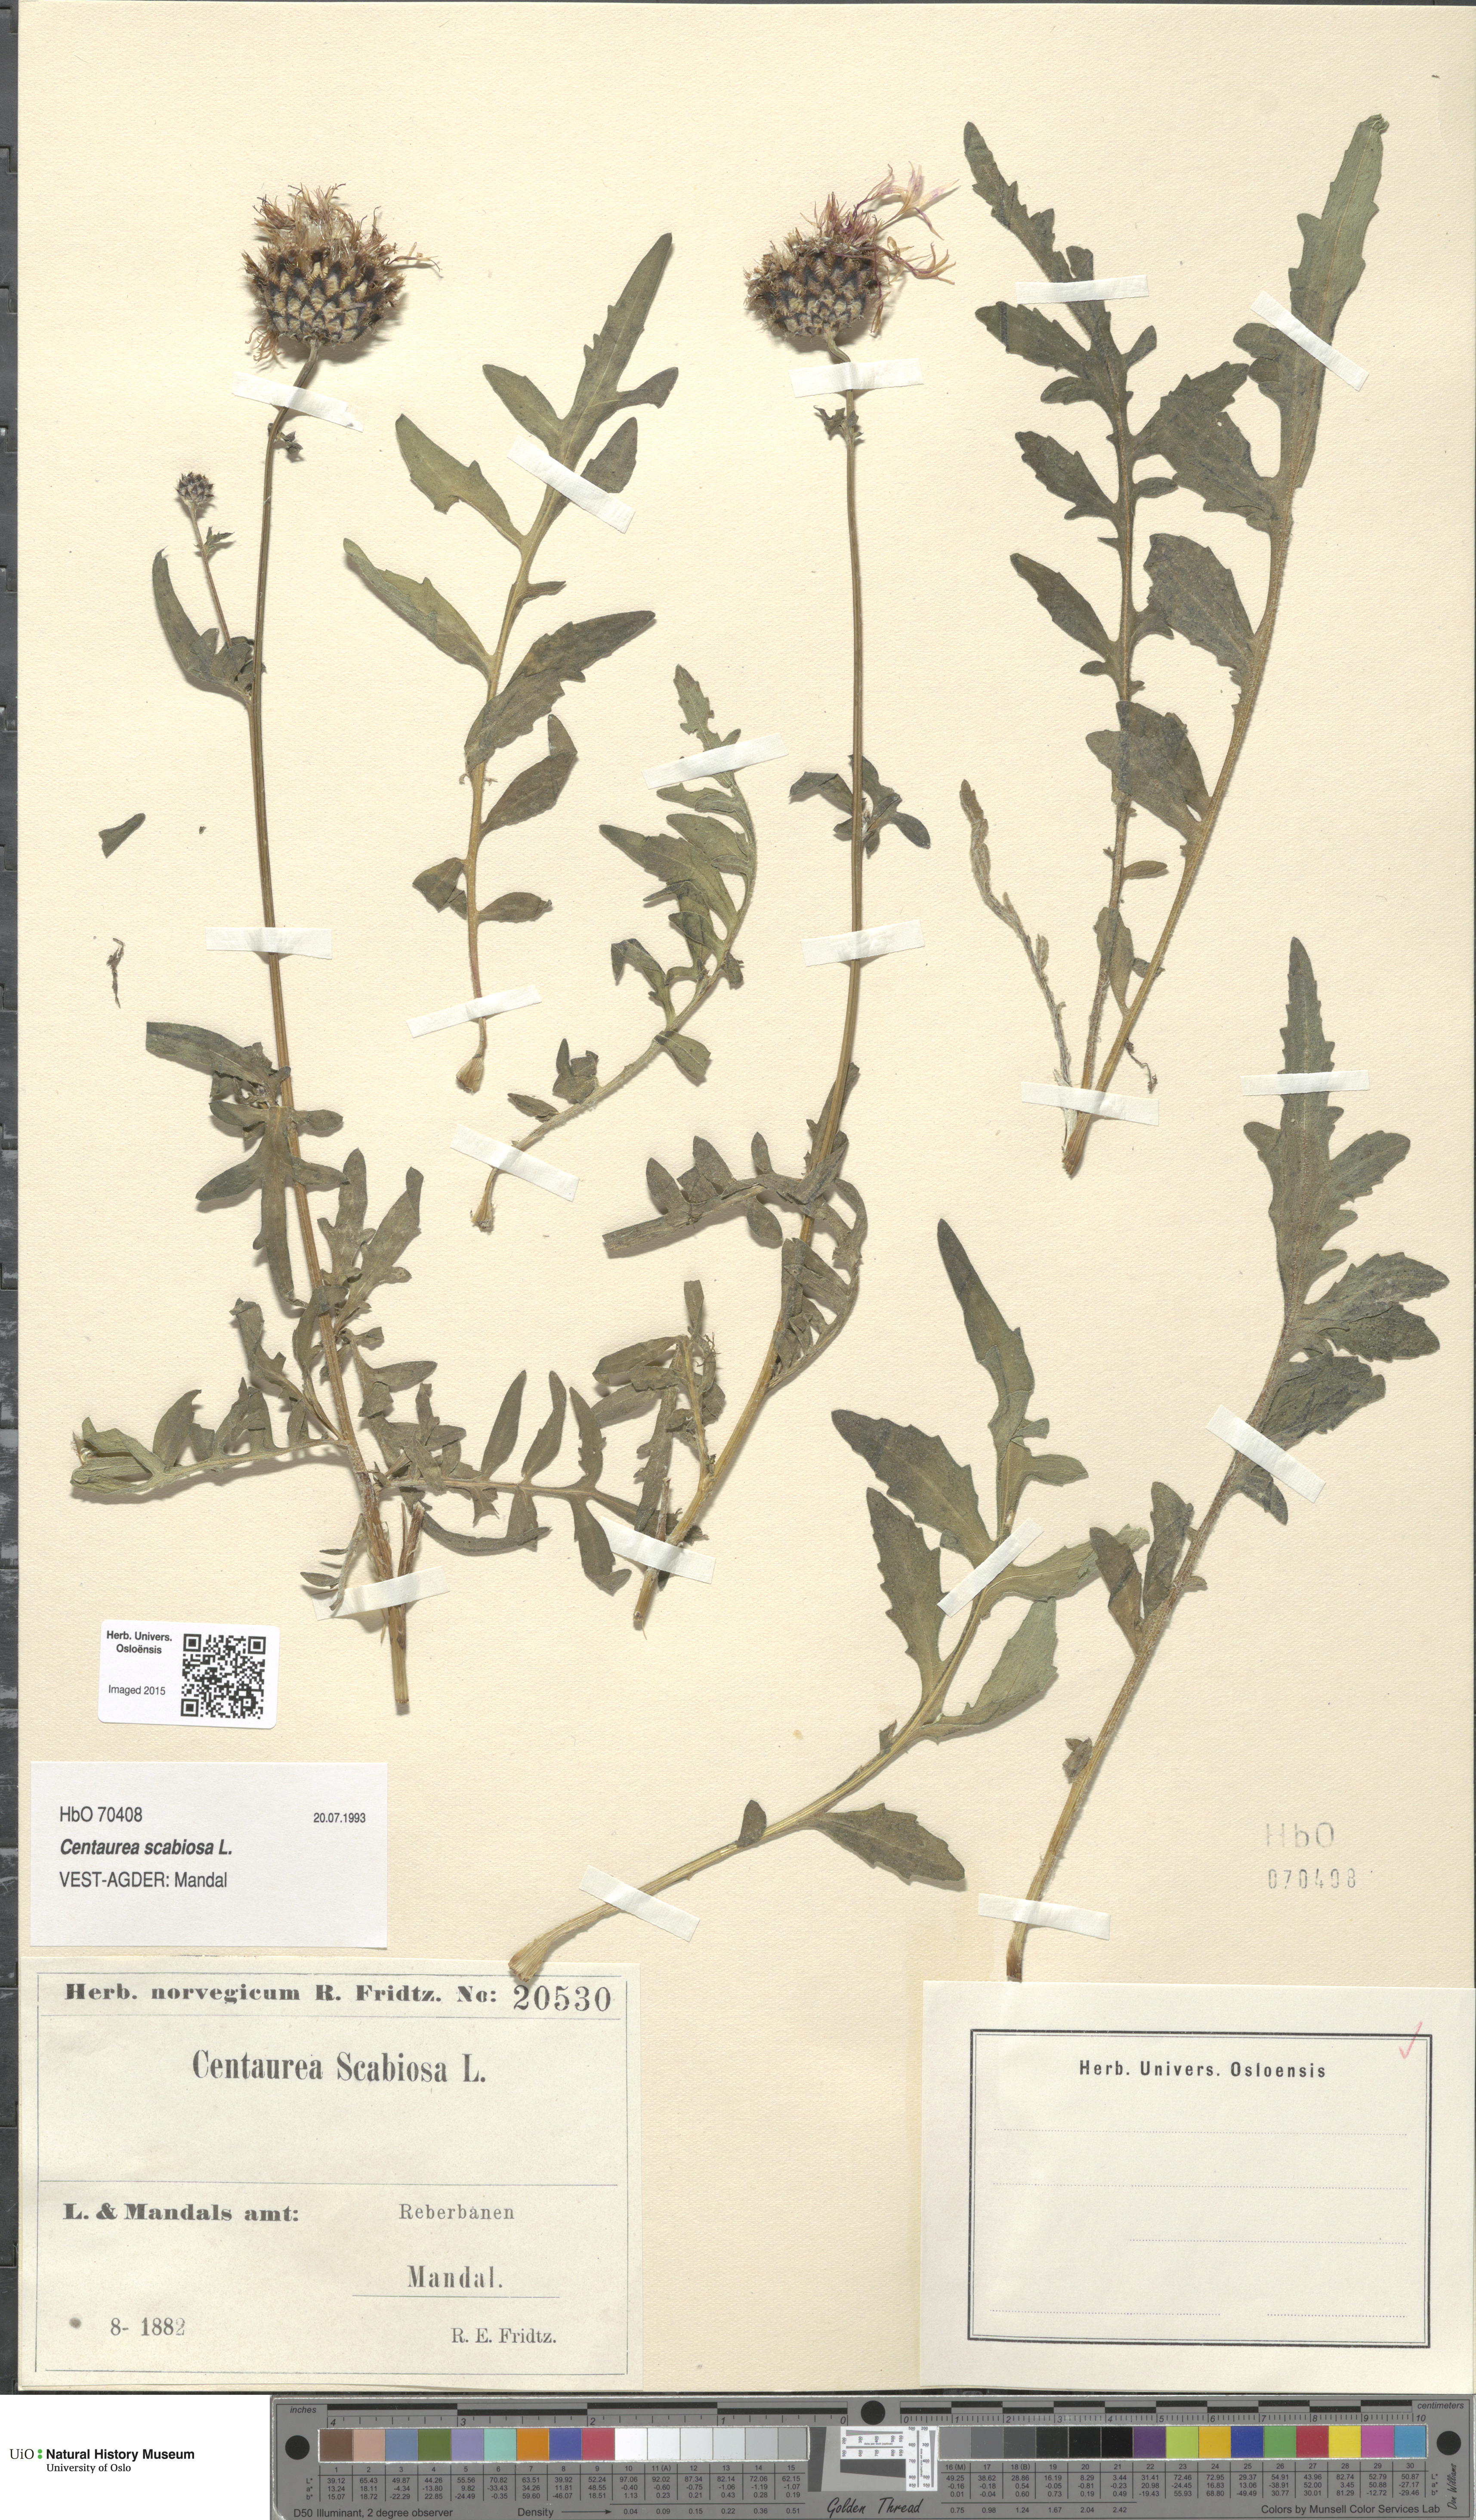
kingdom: Plantae
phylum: Tracheophyta
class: Magnoliopsida
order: Asterales
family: Asteraceae
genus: Centaurea
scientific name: Centaurea scabiosa
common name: Greater knapweed
